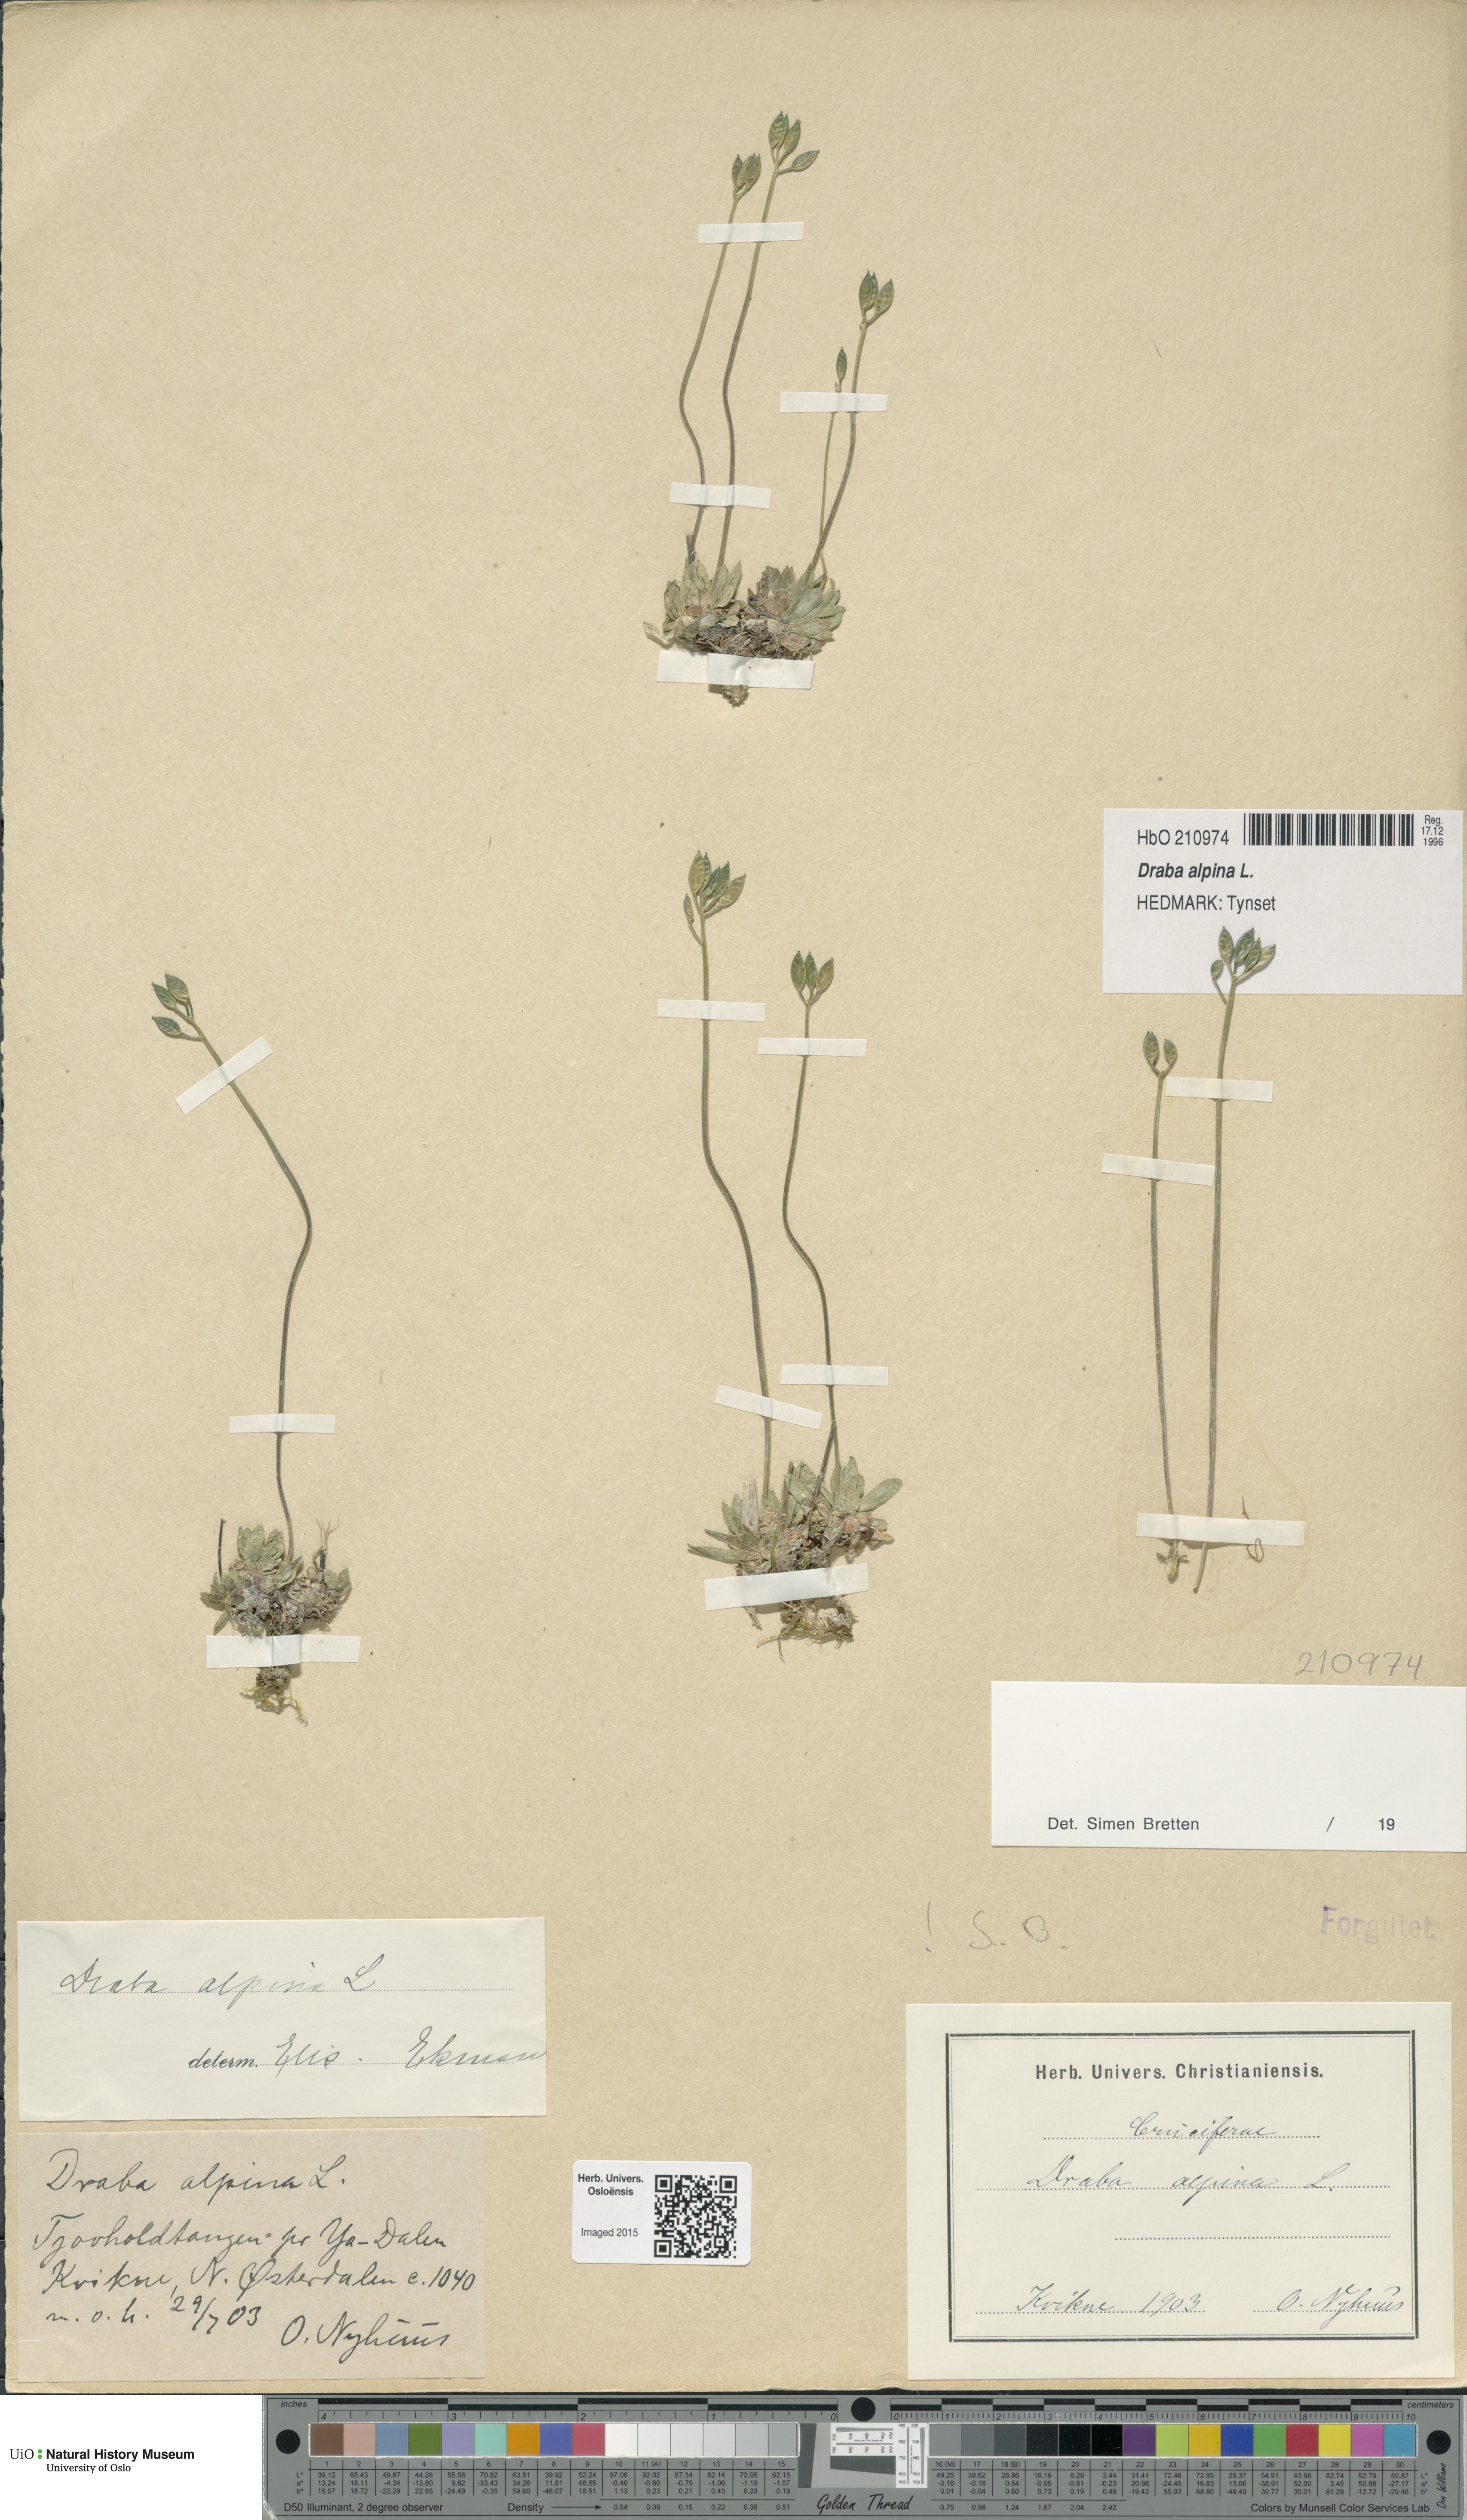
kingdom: Plantae
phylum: Tracheophyta
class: Magnoliopsida
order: Brassicales
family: Brassicaceae
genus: Draba
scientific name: Draba alpina
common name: Alpine draba
